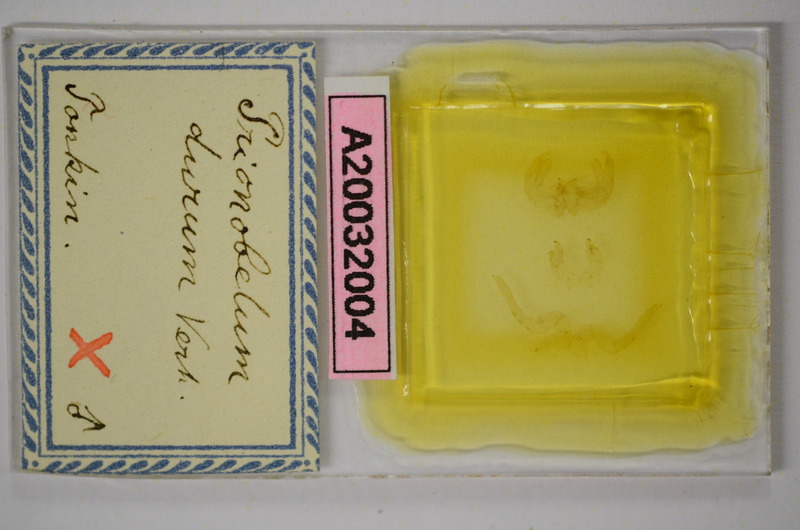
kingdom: Animalia
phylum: Arthropoda
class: Diplopoda
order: Sphaerotheriida
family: Zephroniidae
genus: Prionobelum
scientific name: Prionobelum durum
